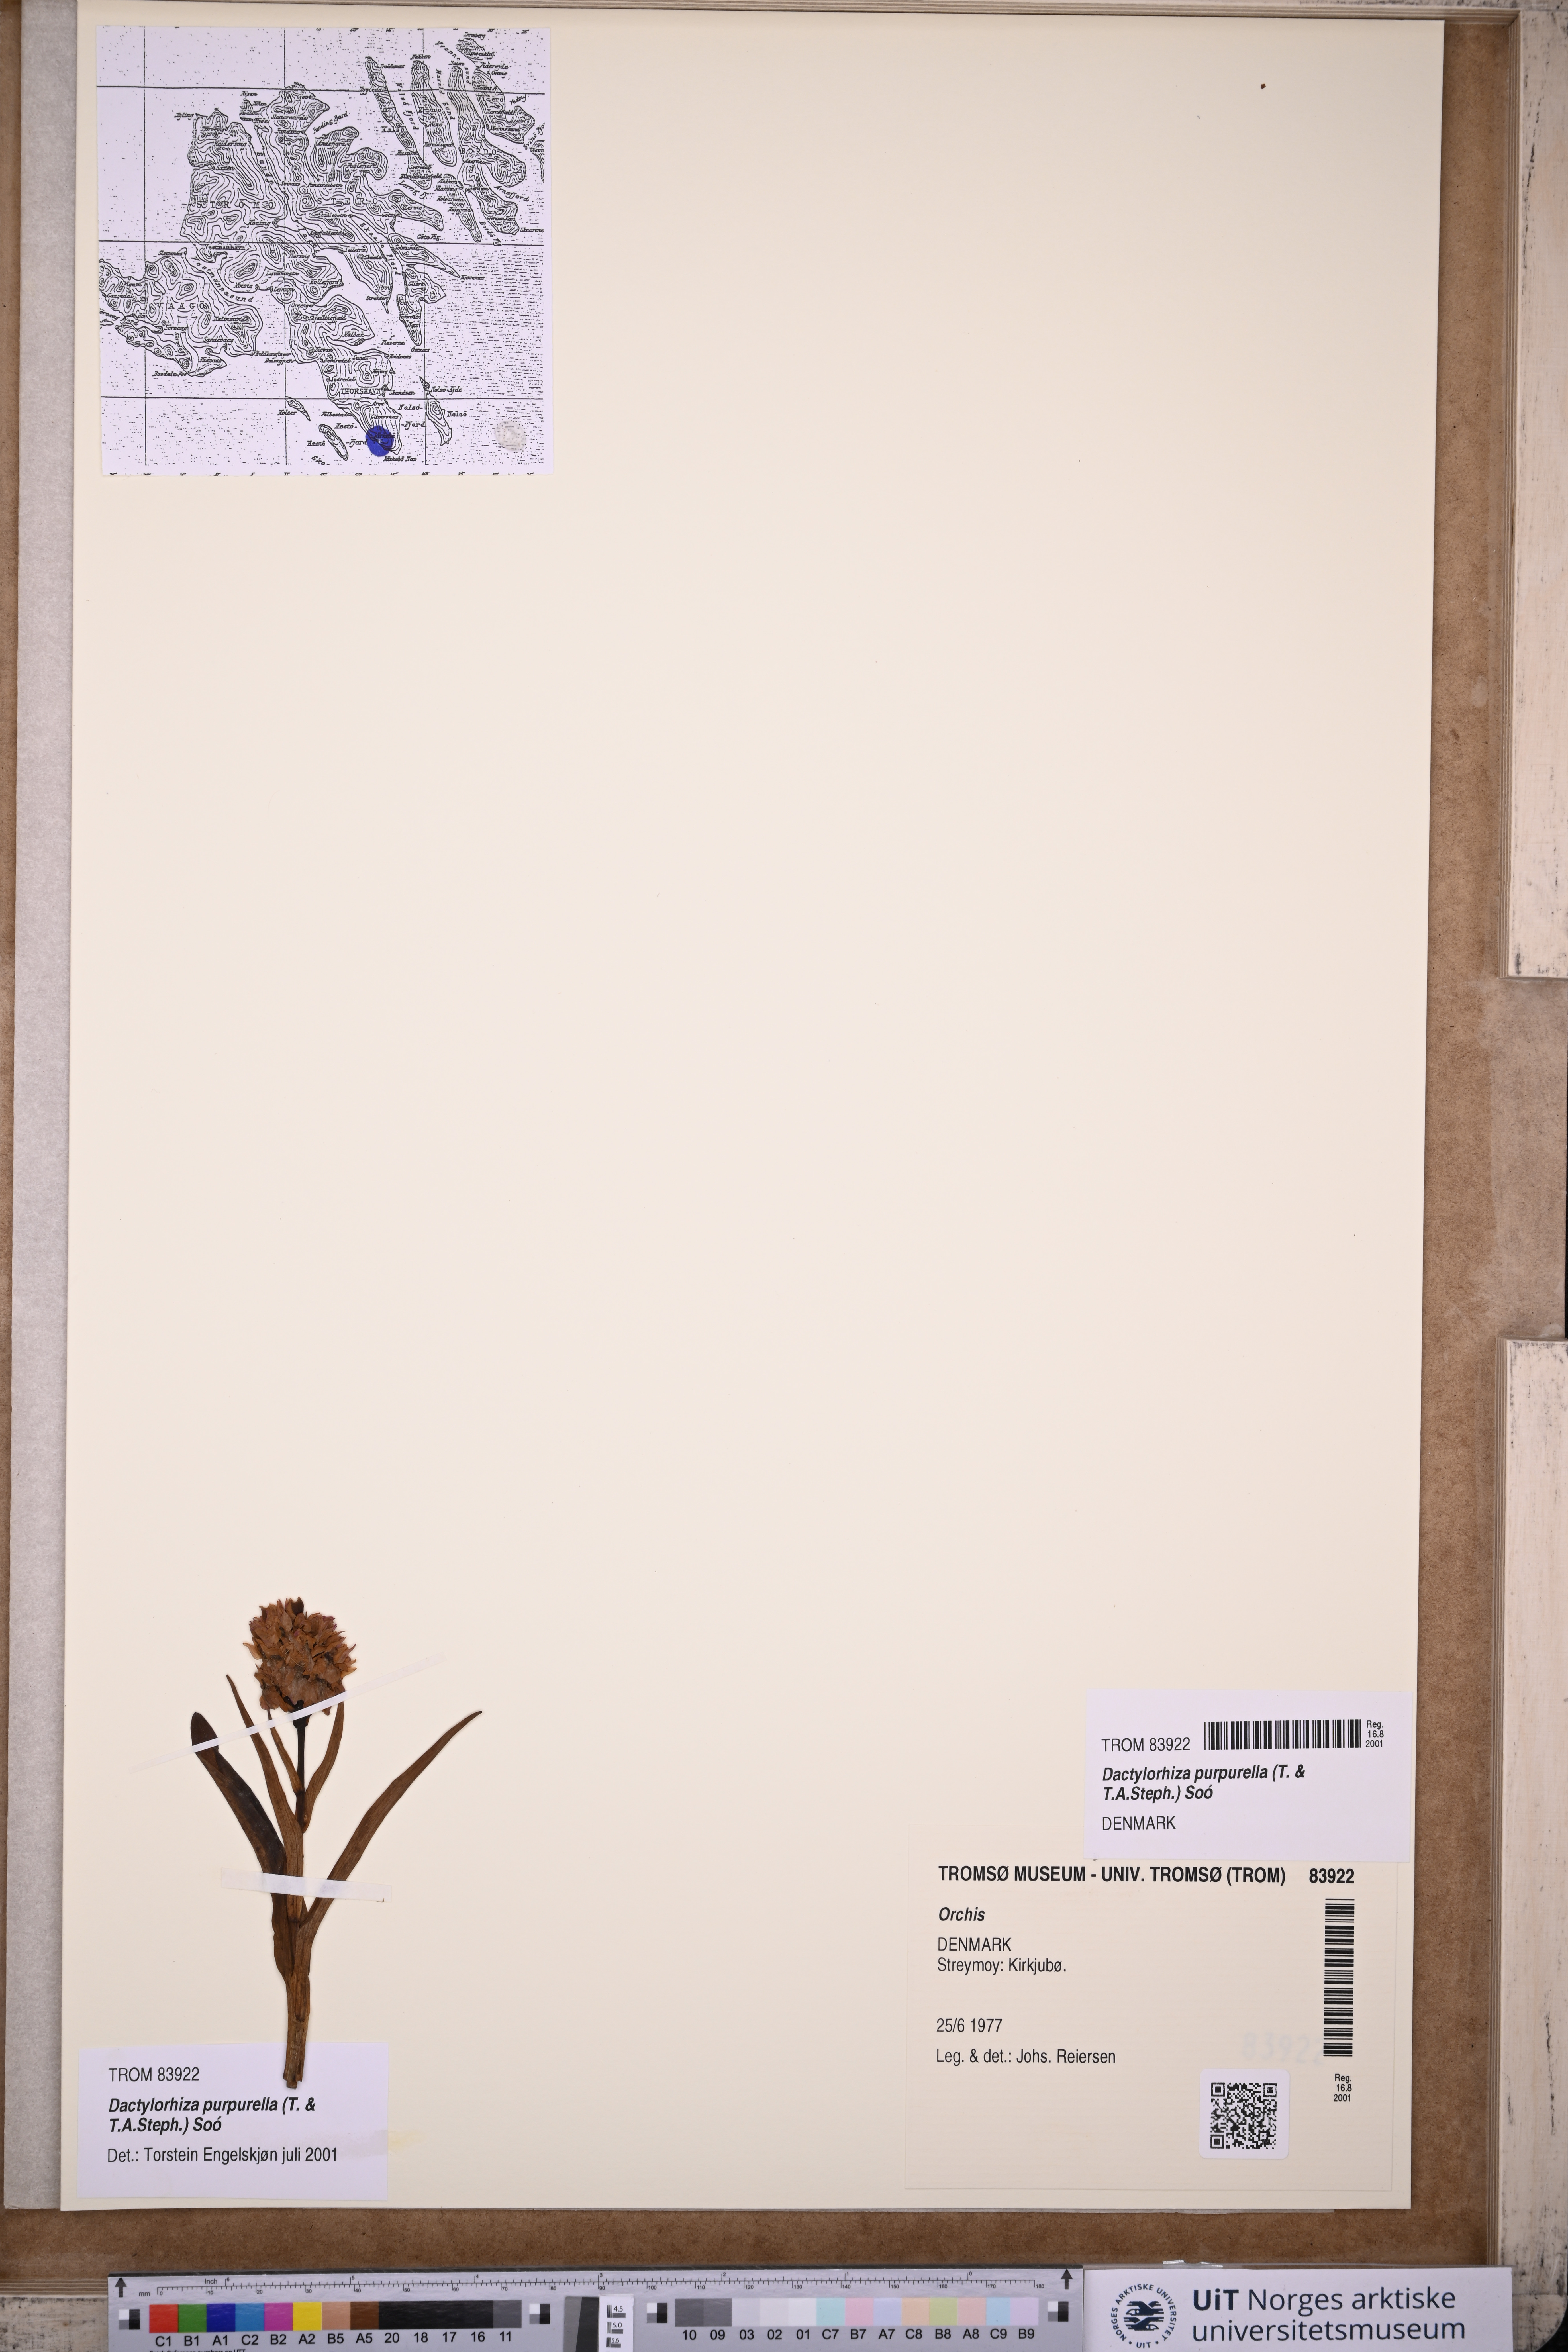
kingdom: Plantae
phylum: Tracheophyta
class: Liliopsida
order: Asparagales
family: Orchidaceae
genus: Dactylorhiza
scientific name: Dactylorhiza majalis
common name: Marsh orchid
